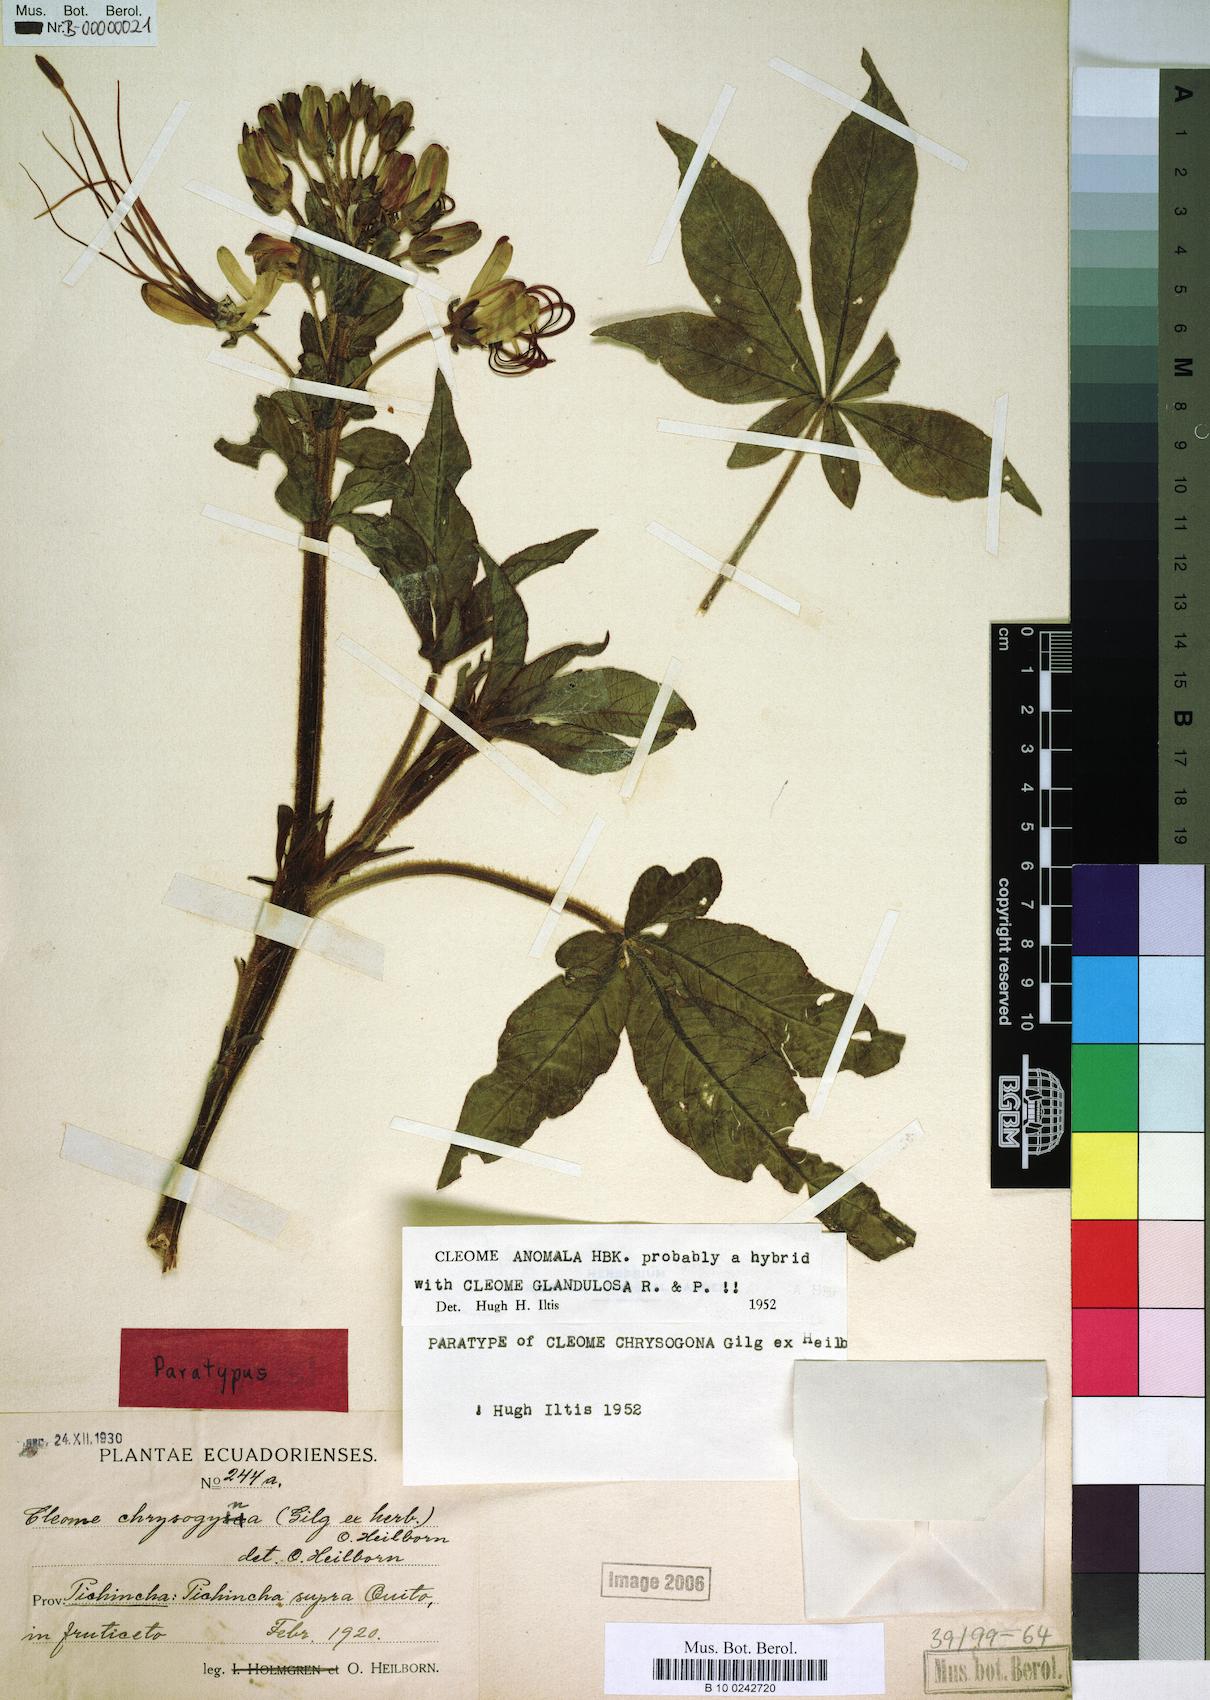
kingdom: Plantae
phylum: Tracheophyta
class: Magnoliopsida
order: Brassicales
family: Cleomaceae
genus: Andinocleome
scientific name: Andinocleome anomala
